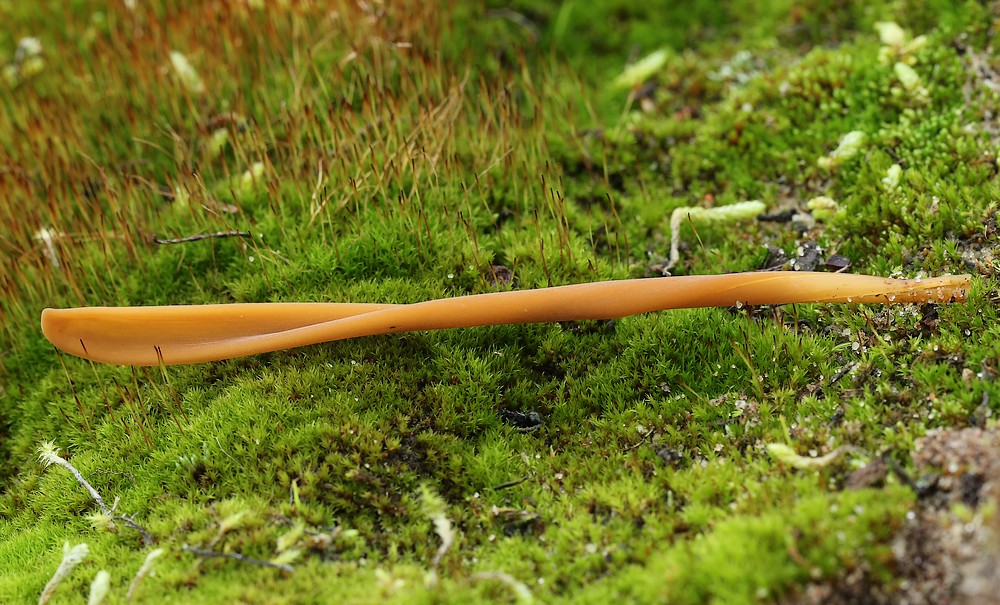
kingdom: Fungi
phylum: Basidiomycota
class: Agaricomycetes
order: Agaricales
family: Typhulaceae
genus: Typhula
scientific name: Typhula fistulosa
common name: pibet rørkølle
